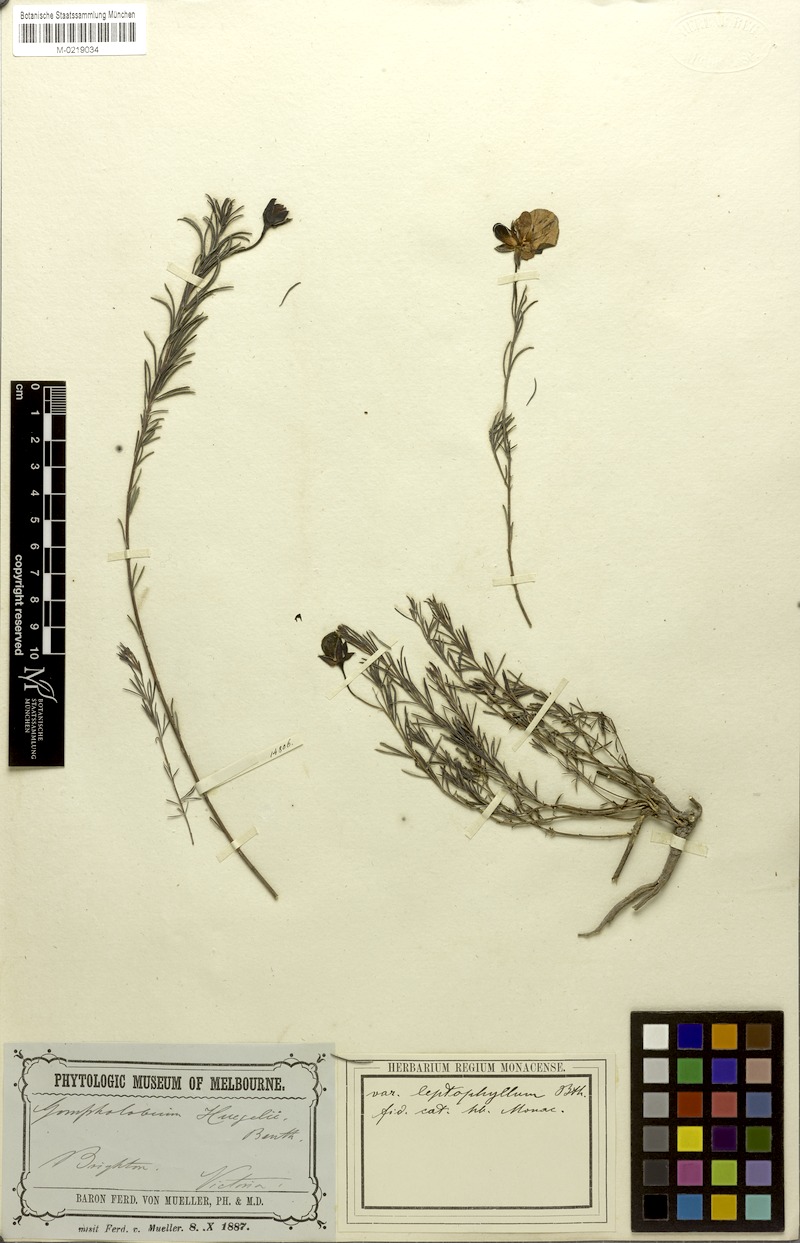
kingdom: Plantae
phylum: Tracheophyta
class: Magnoliopsida
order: Fabales
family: Fabaceae
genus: Gompholobium
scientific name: Gompholobium huegelii
